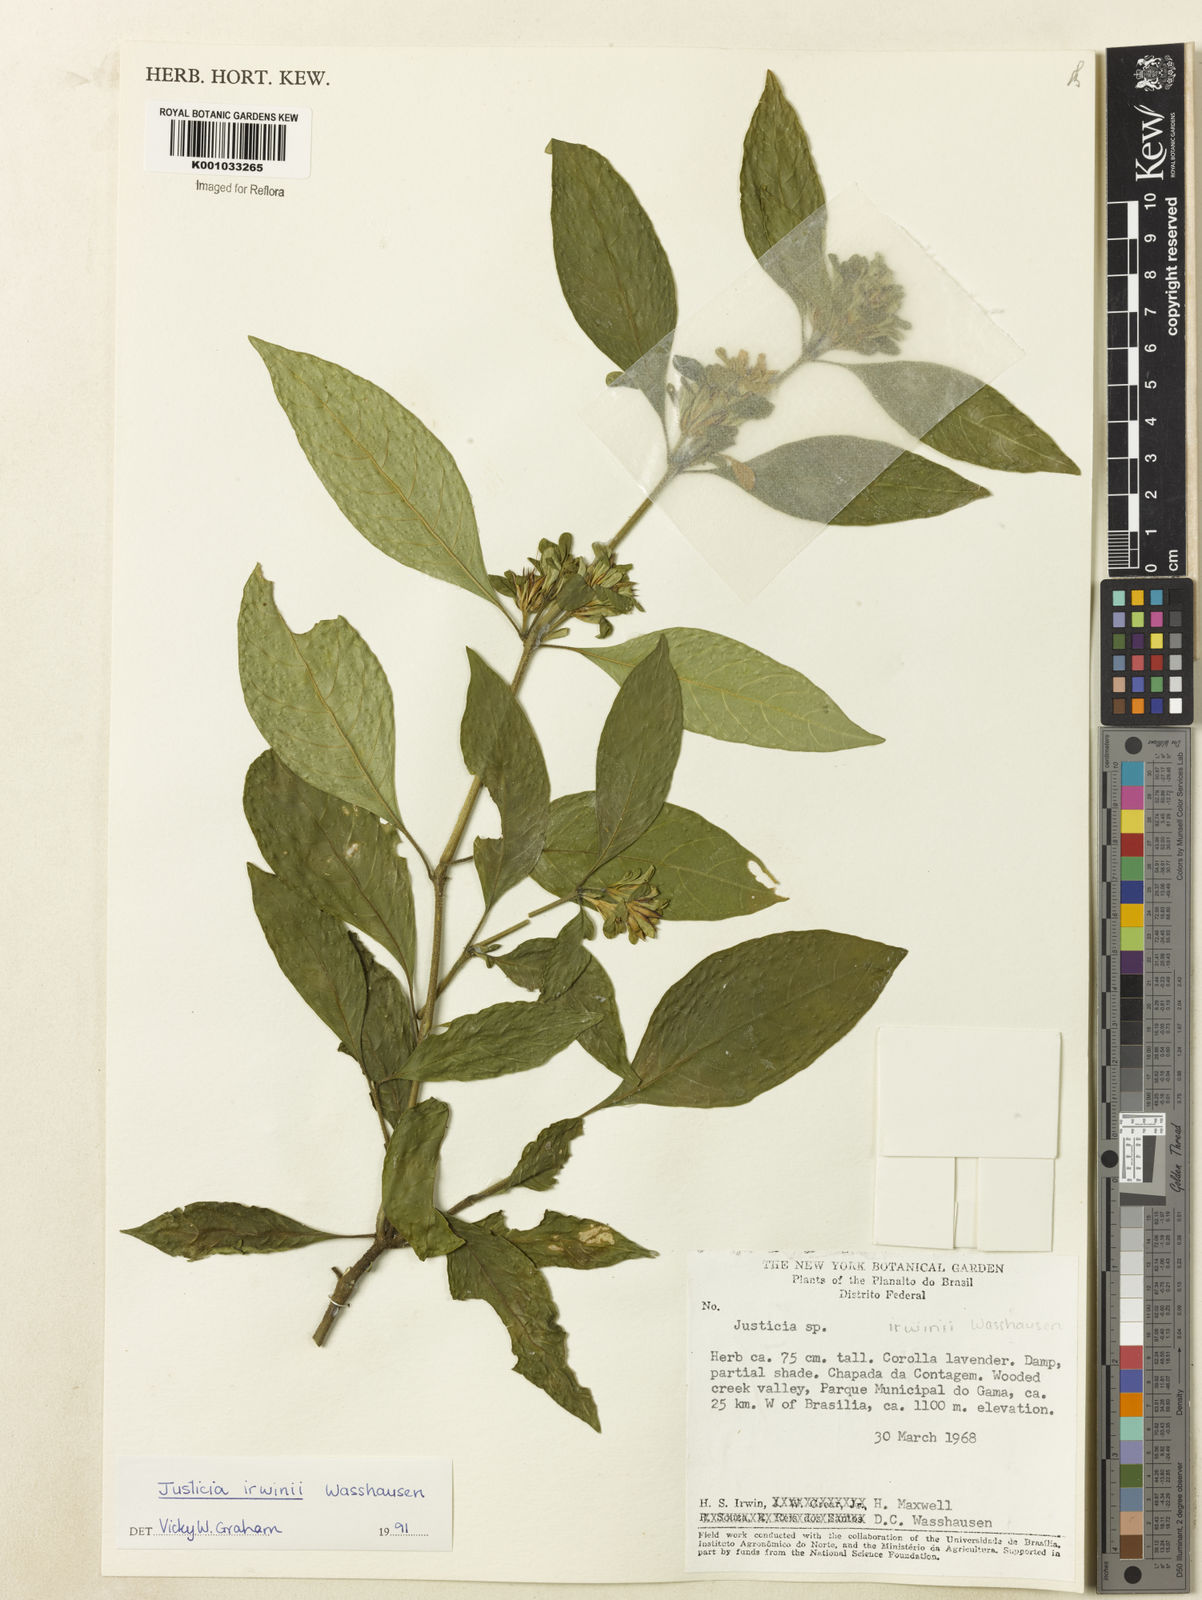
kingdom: Plantae
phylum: Tracheophyta
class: Magnoliopsida
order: Lamiales
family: Acanthaceae
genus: Justicia
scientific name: Justicia irwinii
